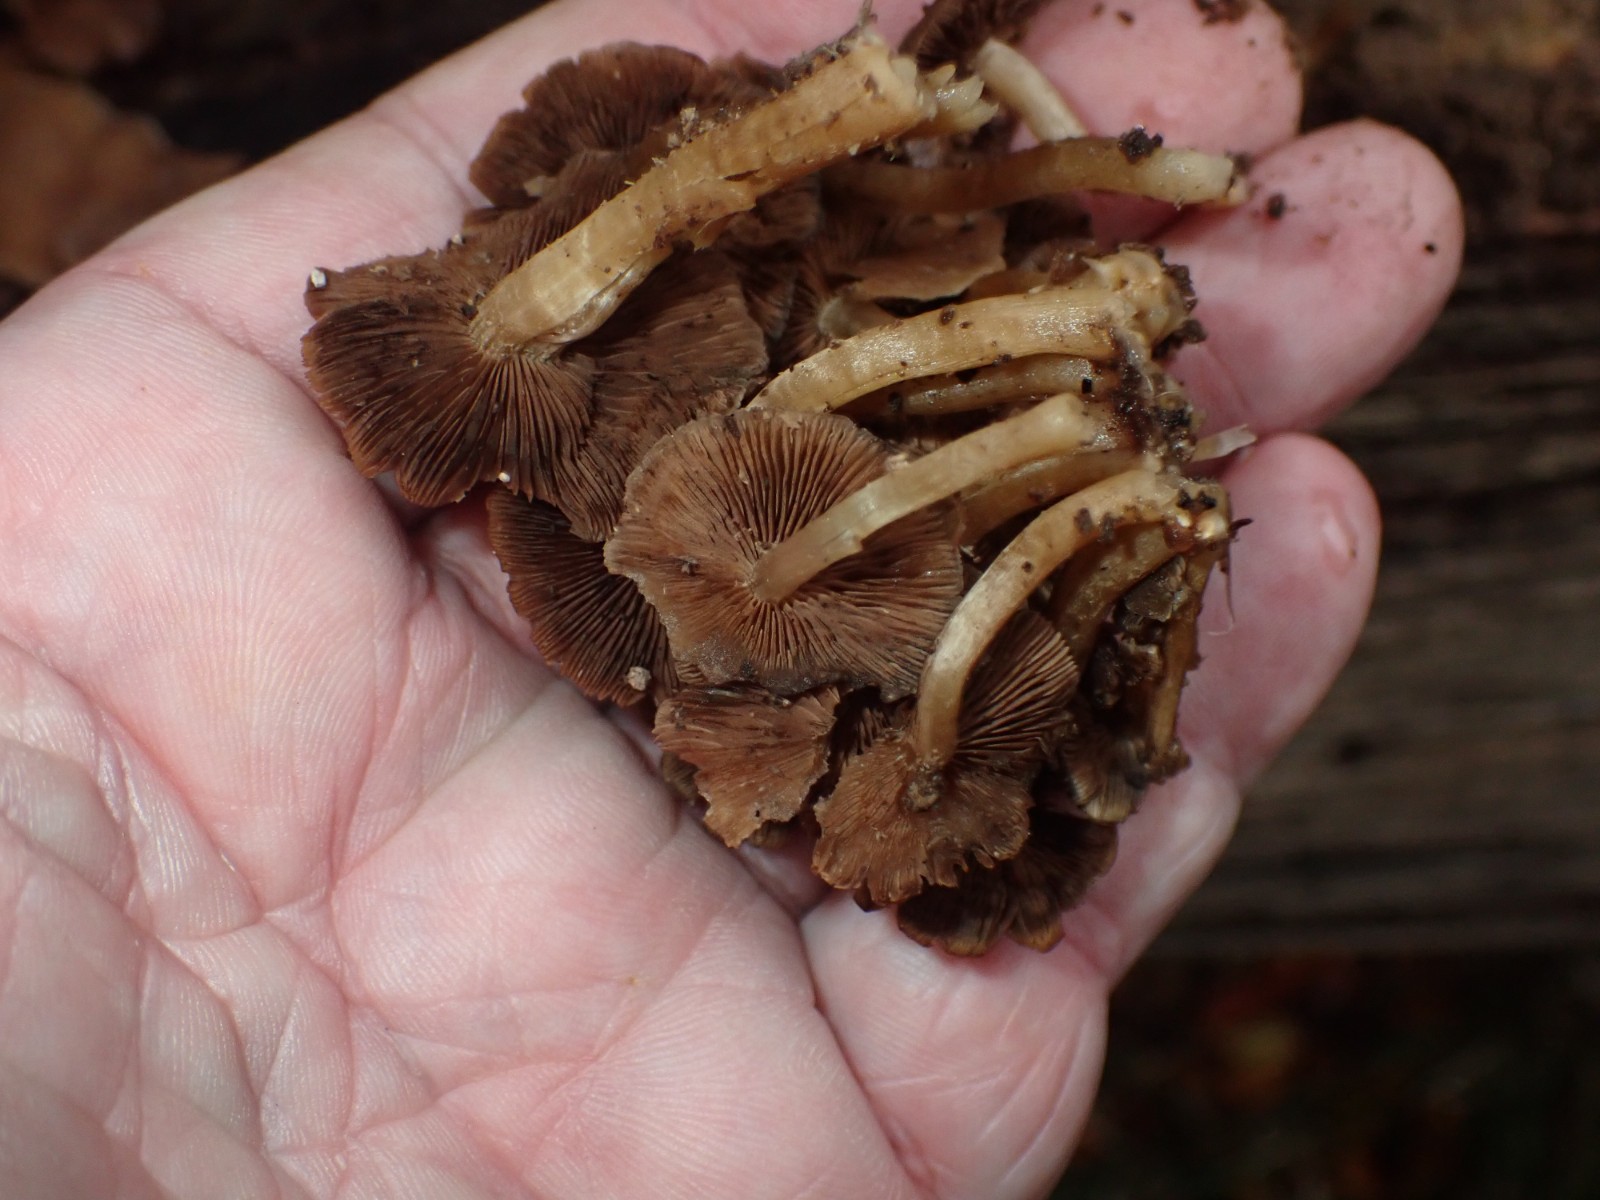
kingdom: Fungi
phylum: Basidiomycota
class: Agaricomycetes
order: Agaricales
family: Psathyrellaceae
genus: Psathyrella
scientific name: Psathyrella
